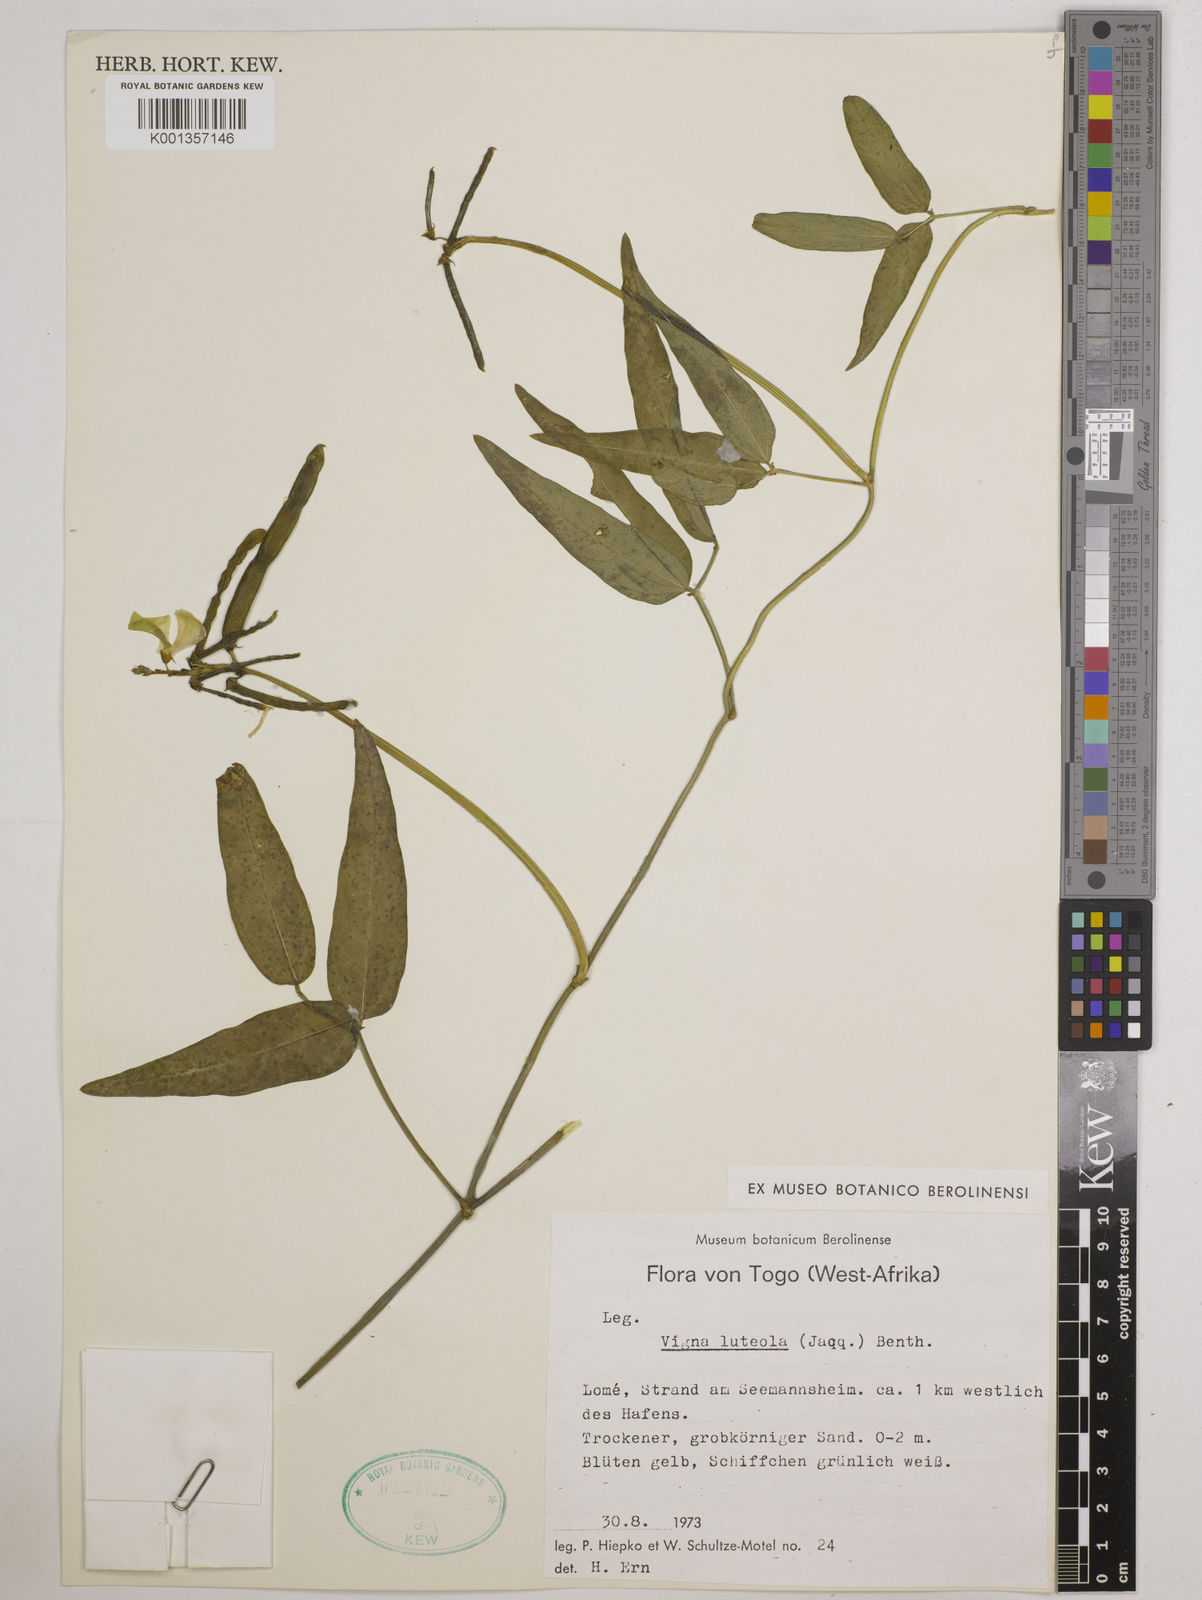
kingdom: Plantae
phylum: Tracheophyta
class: Magnoliopsida
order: Fabales
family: Fabaceae
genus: Vigna
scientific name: Vigna luteola
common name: Hairypod cowpea
